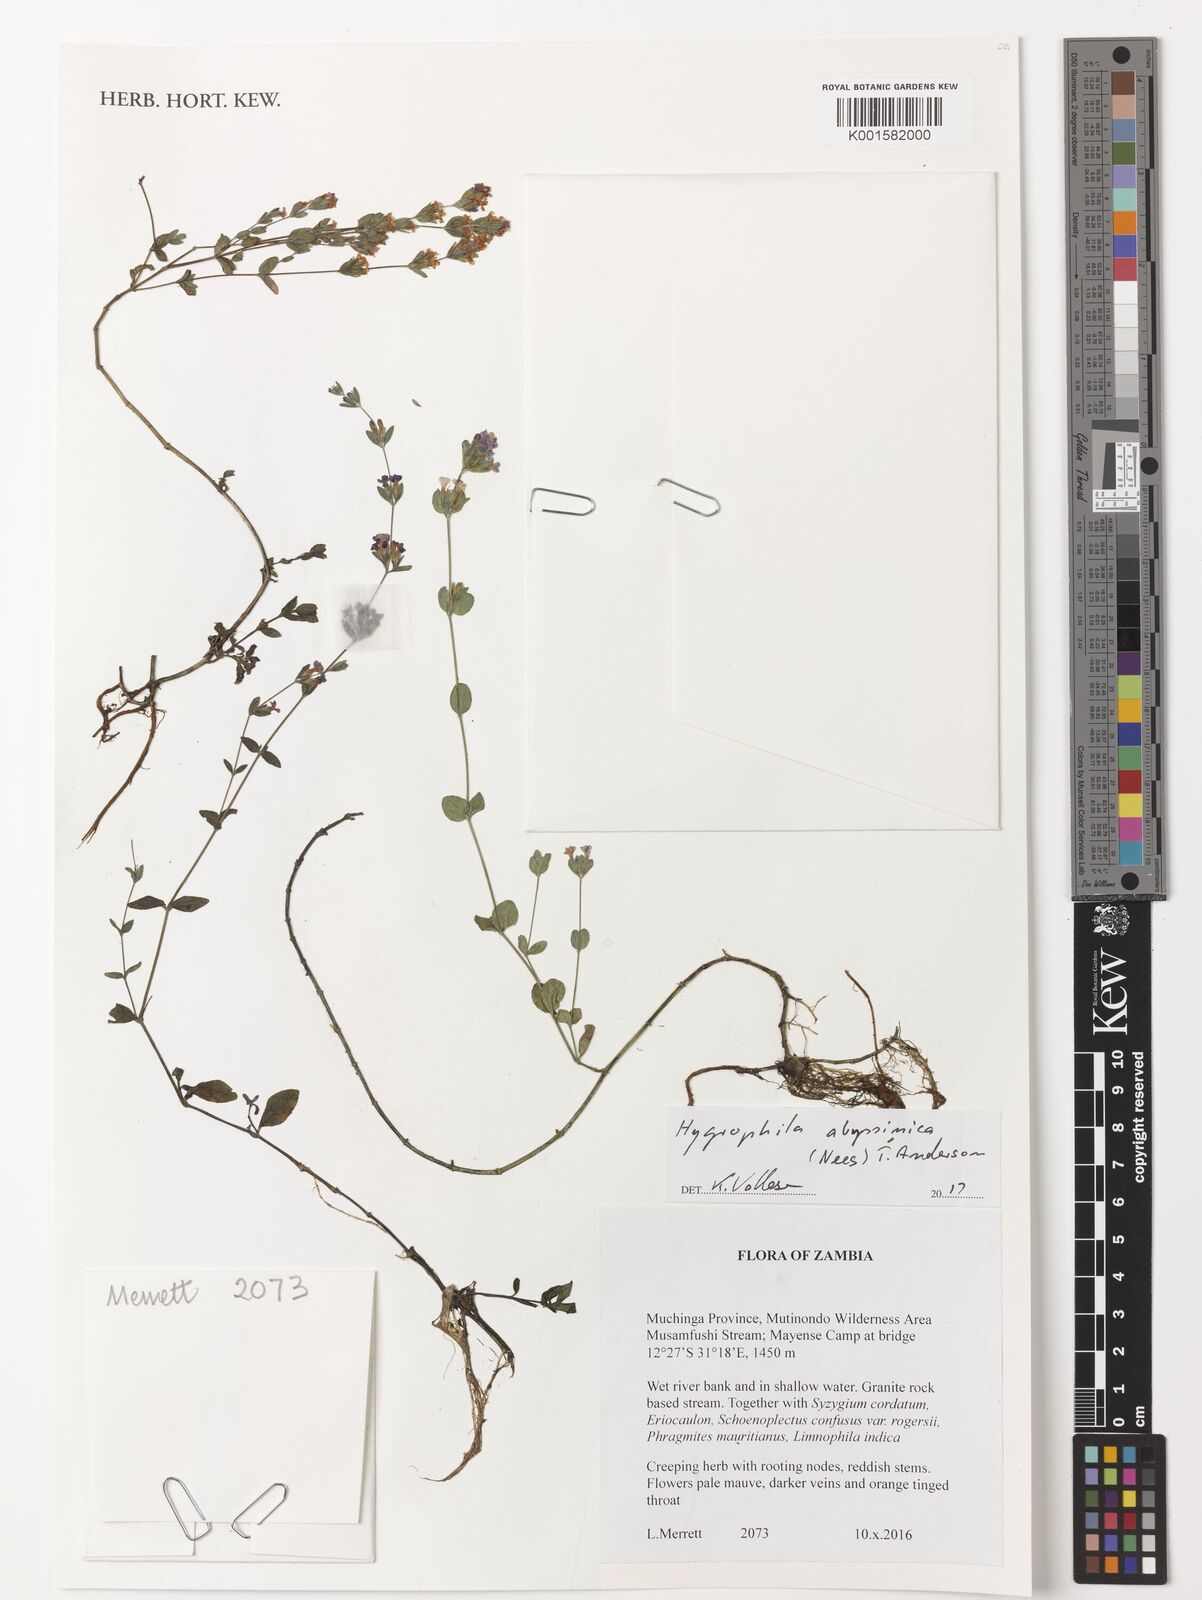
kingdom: Plantae
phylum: Tracheophyta
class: Magnoliopsida
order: Lamiales
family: Acanthaceae
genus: Hygrophila
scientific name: Hygrophila abyssinica
